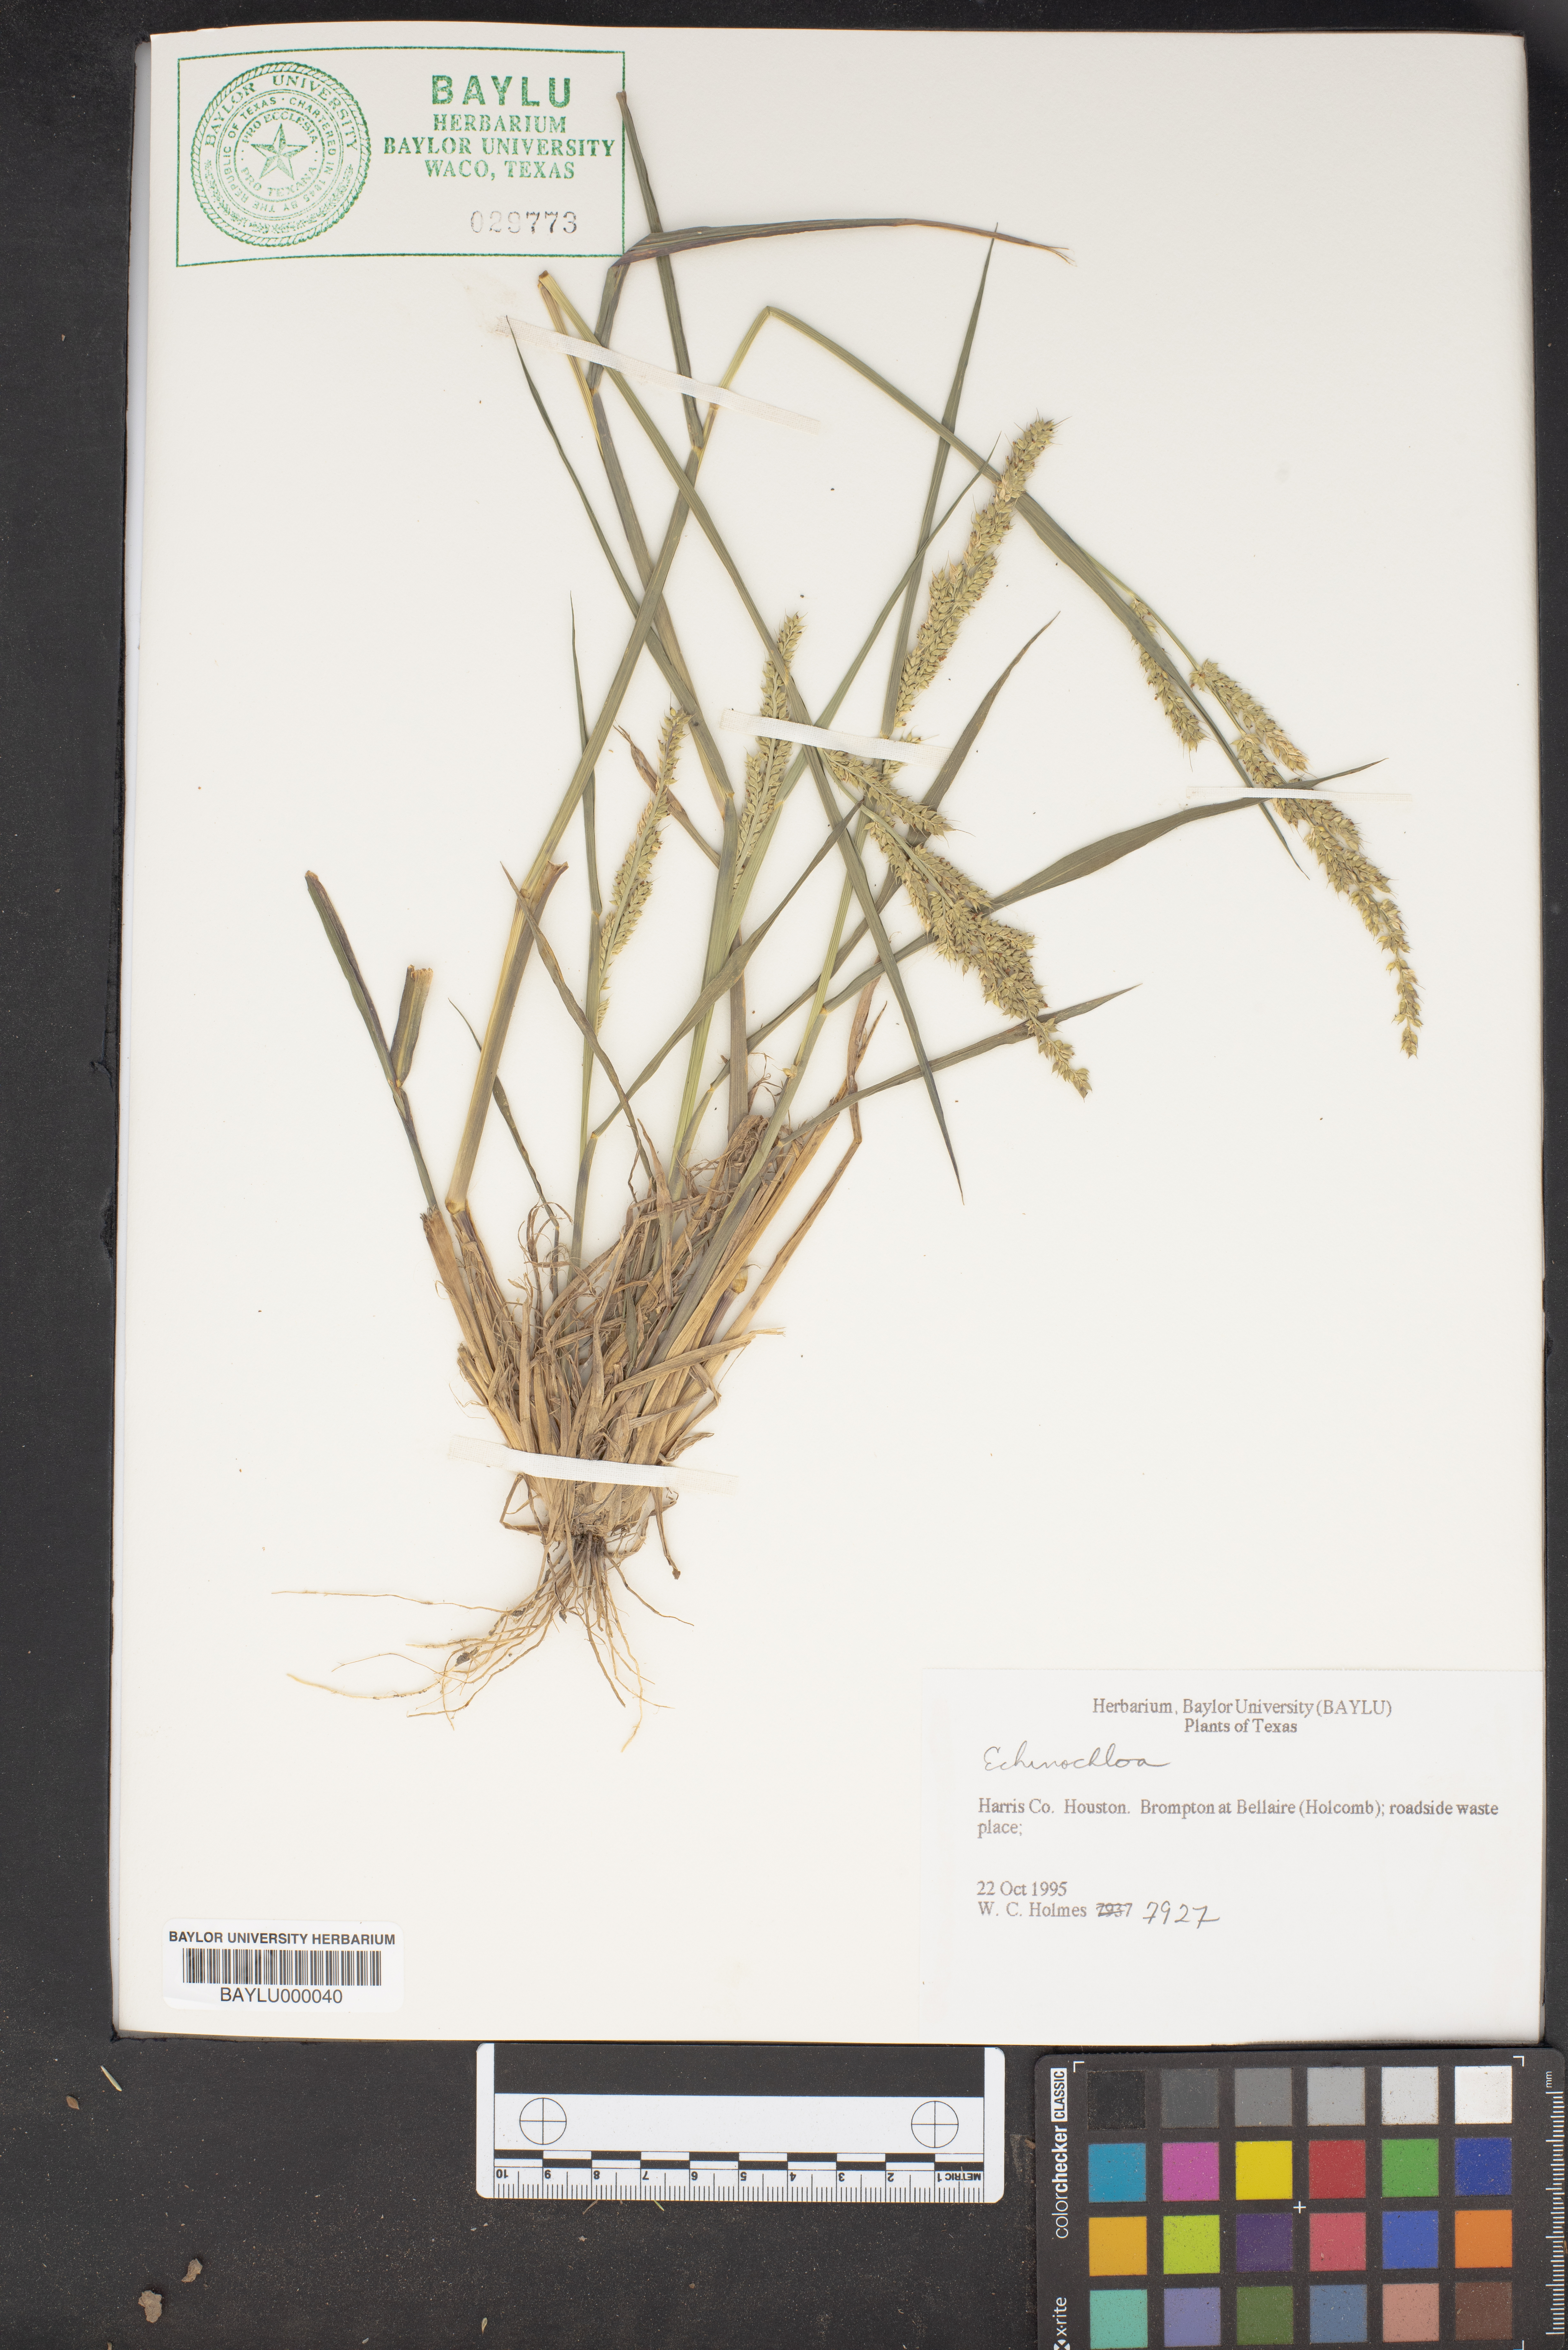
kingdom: Plantae
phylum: Tracheophyta
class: Liliopsida
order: Poales
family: Poaceae
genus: Echinochloa
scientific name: Echinochloa
